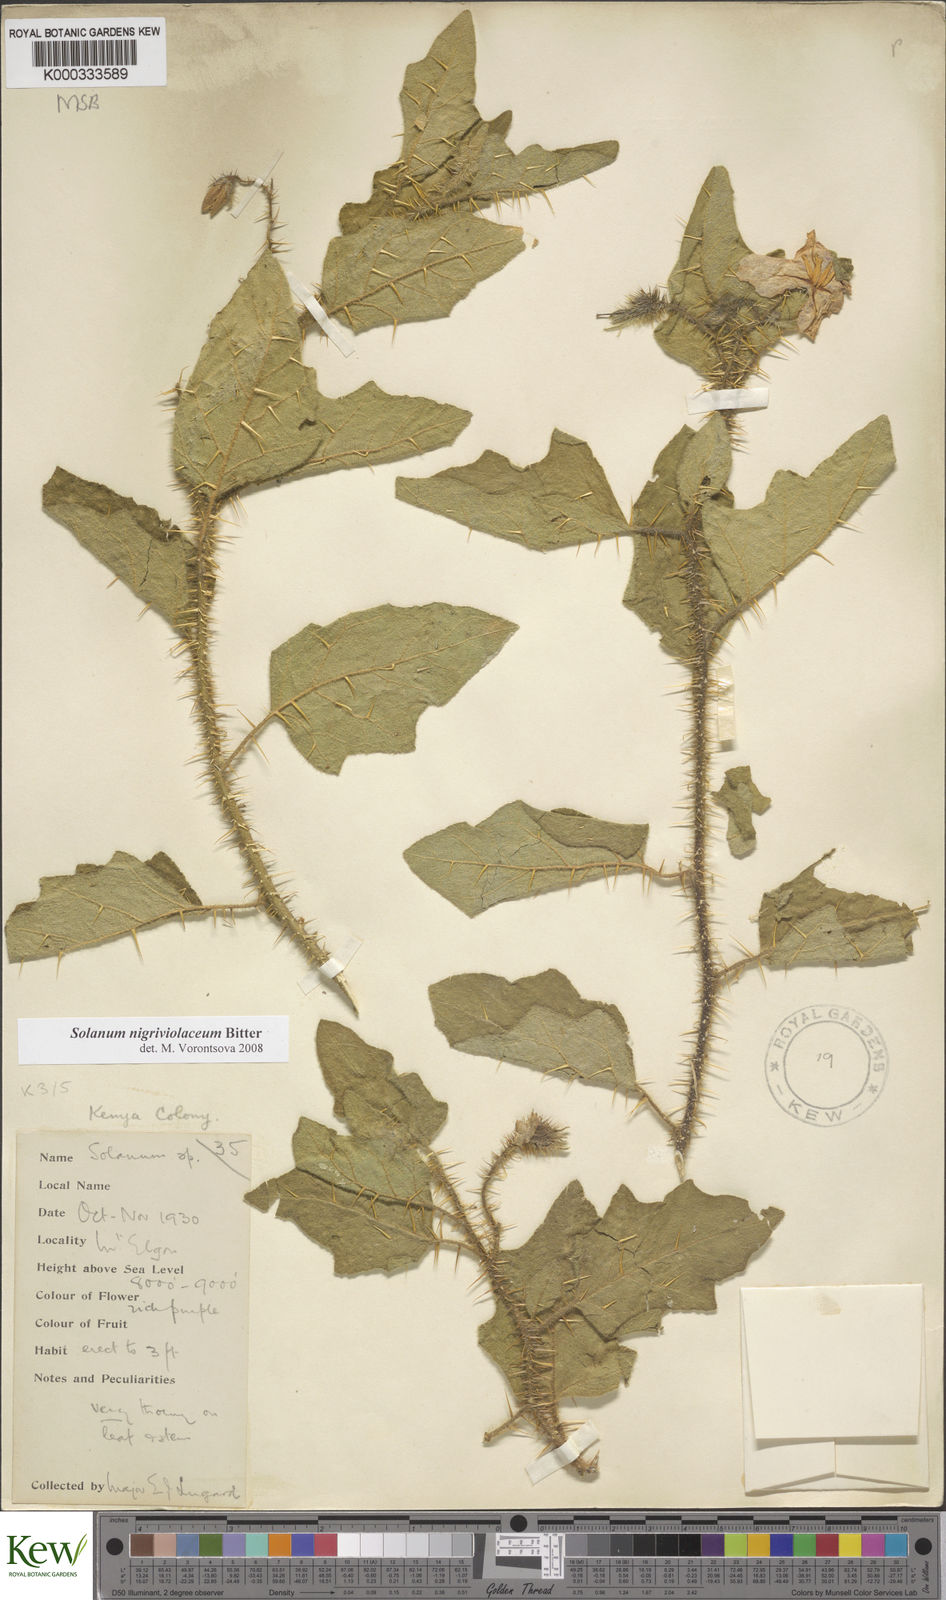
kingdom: Plantae
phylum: Tracheophyta
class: Magnoliopsida
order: Solanales
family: Solanaceae
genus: Solanum
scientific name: Solanum nigriviolaceum
